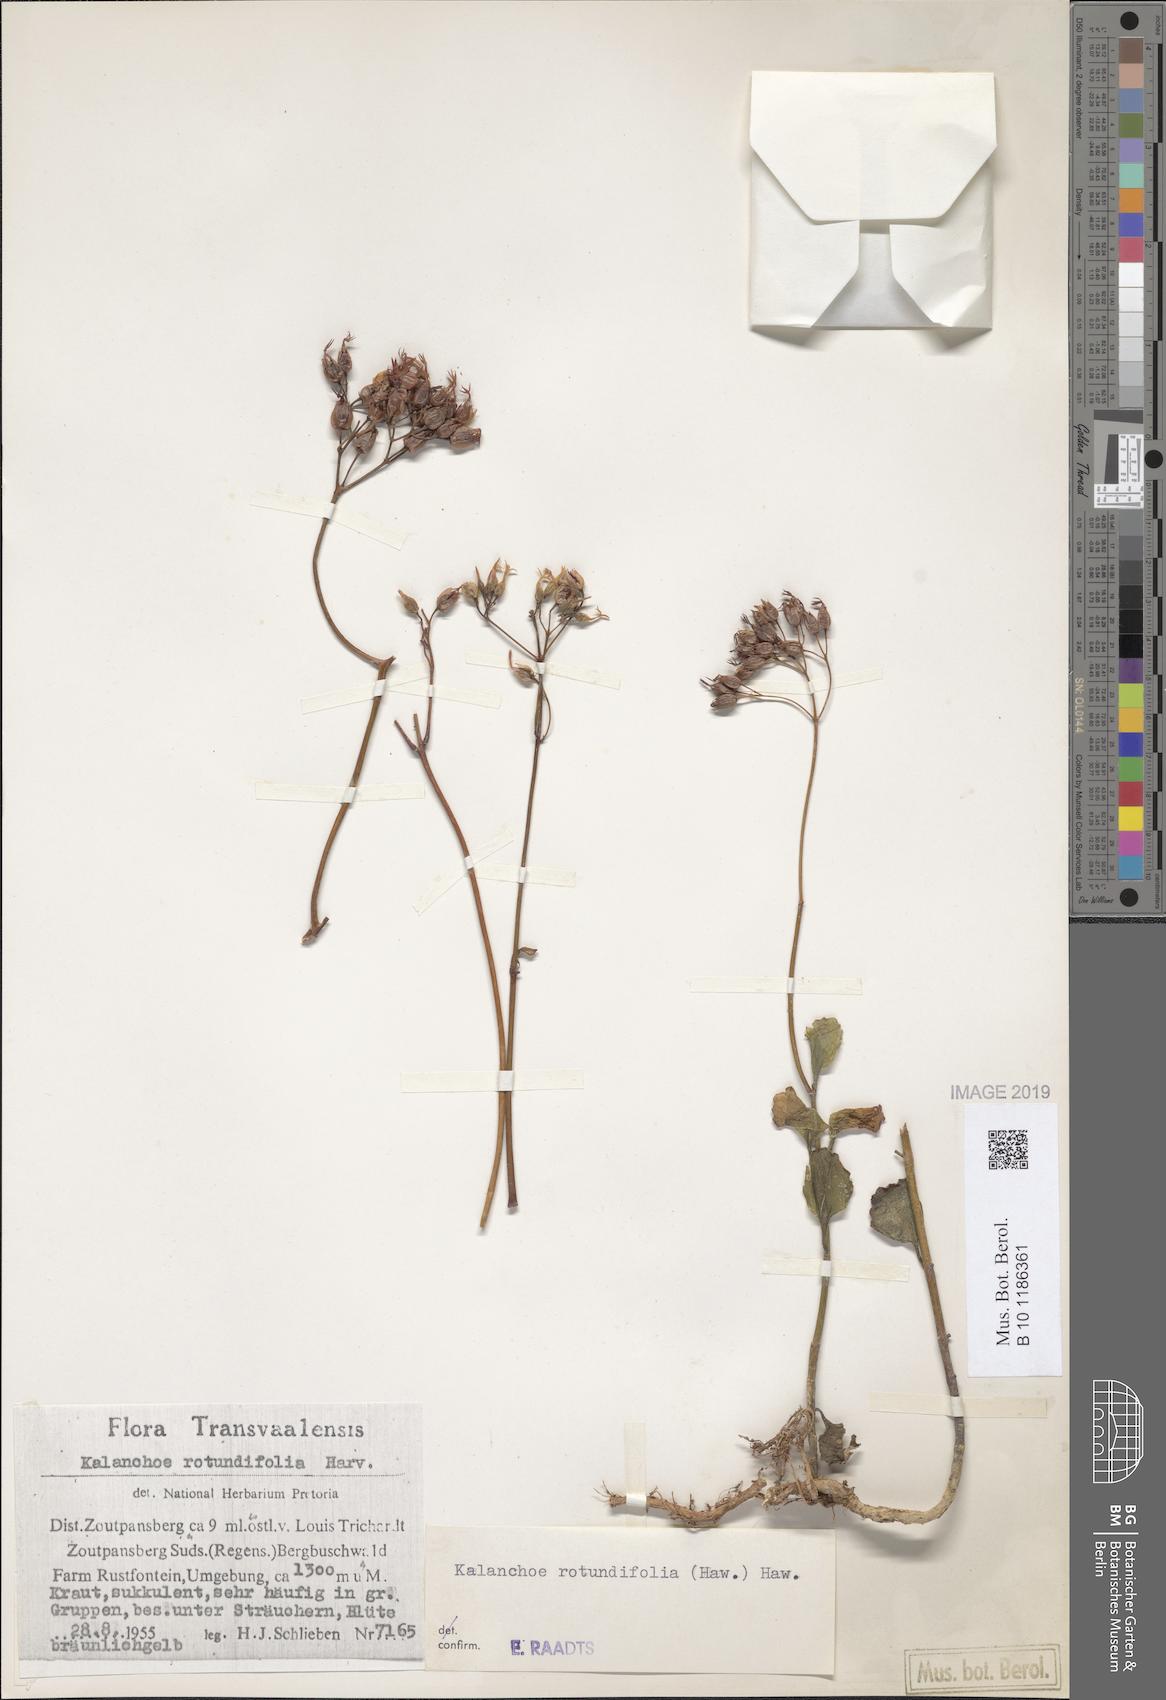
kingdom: Plantae
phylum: Tracheophyta
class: Magnoliopsida
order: Saxifragales
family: Crassulaceae
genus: Kalanchoe
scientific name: Kalanchoe rotundifolia
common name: Common kalanchoe
